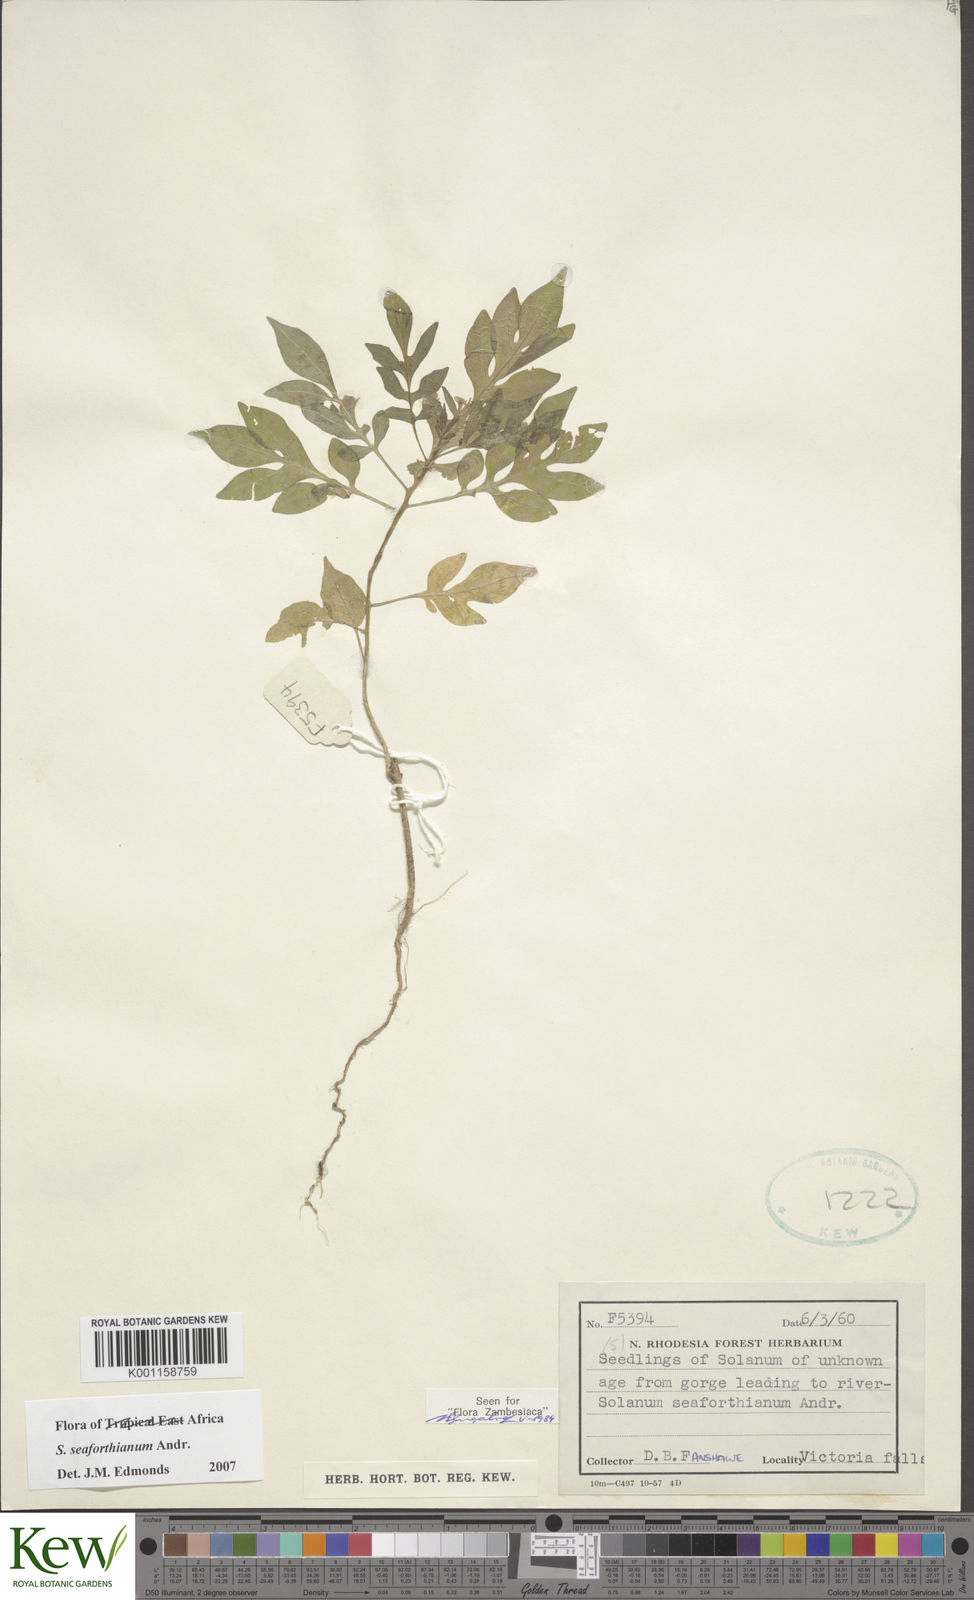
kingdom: Plantae
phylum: Tracheophyta
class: Magnoliopsida
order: Solanales
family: Solanaceae
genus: Solanum
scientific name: Solanum seaforthianum
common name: Brazilian nightshade
